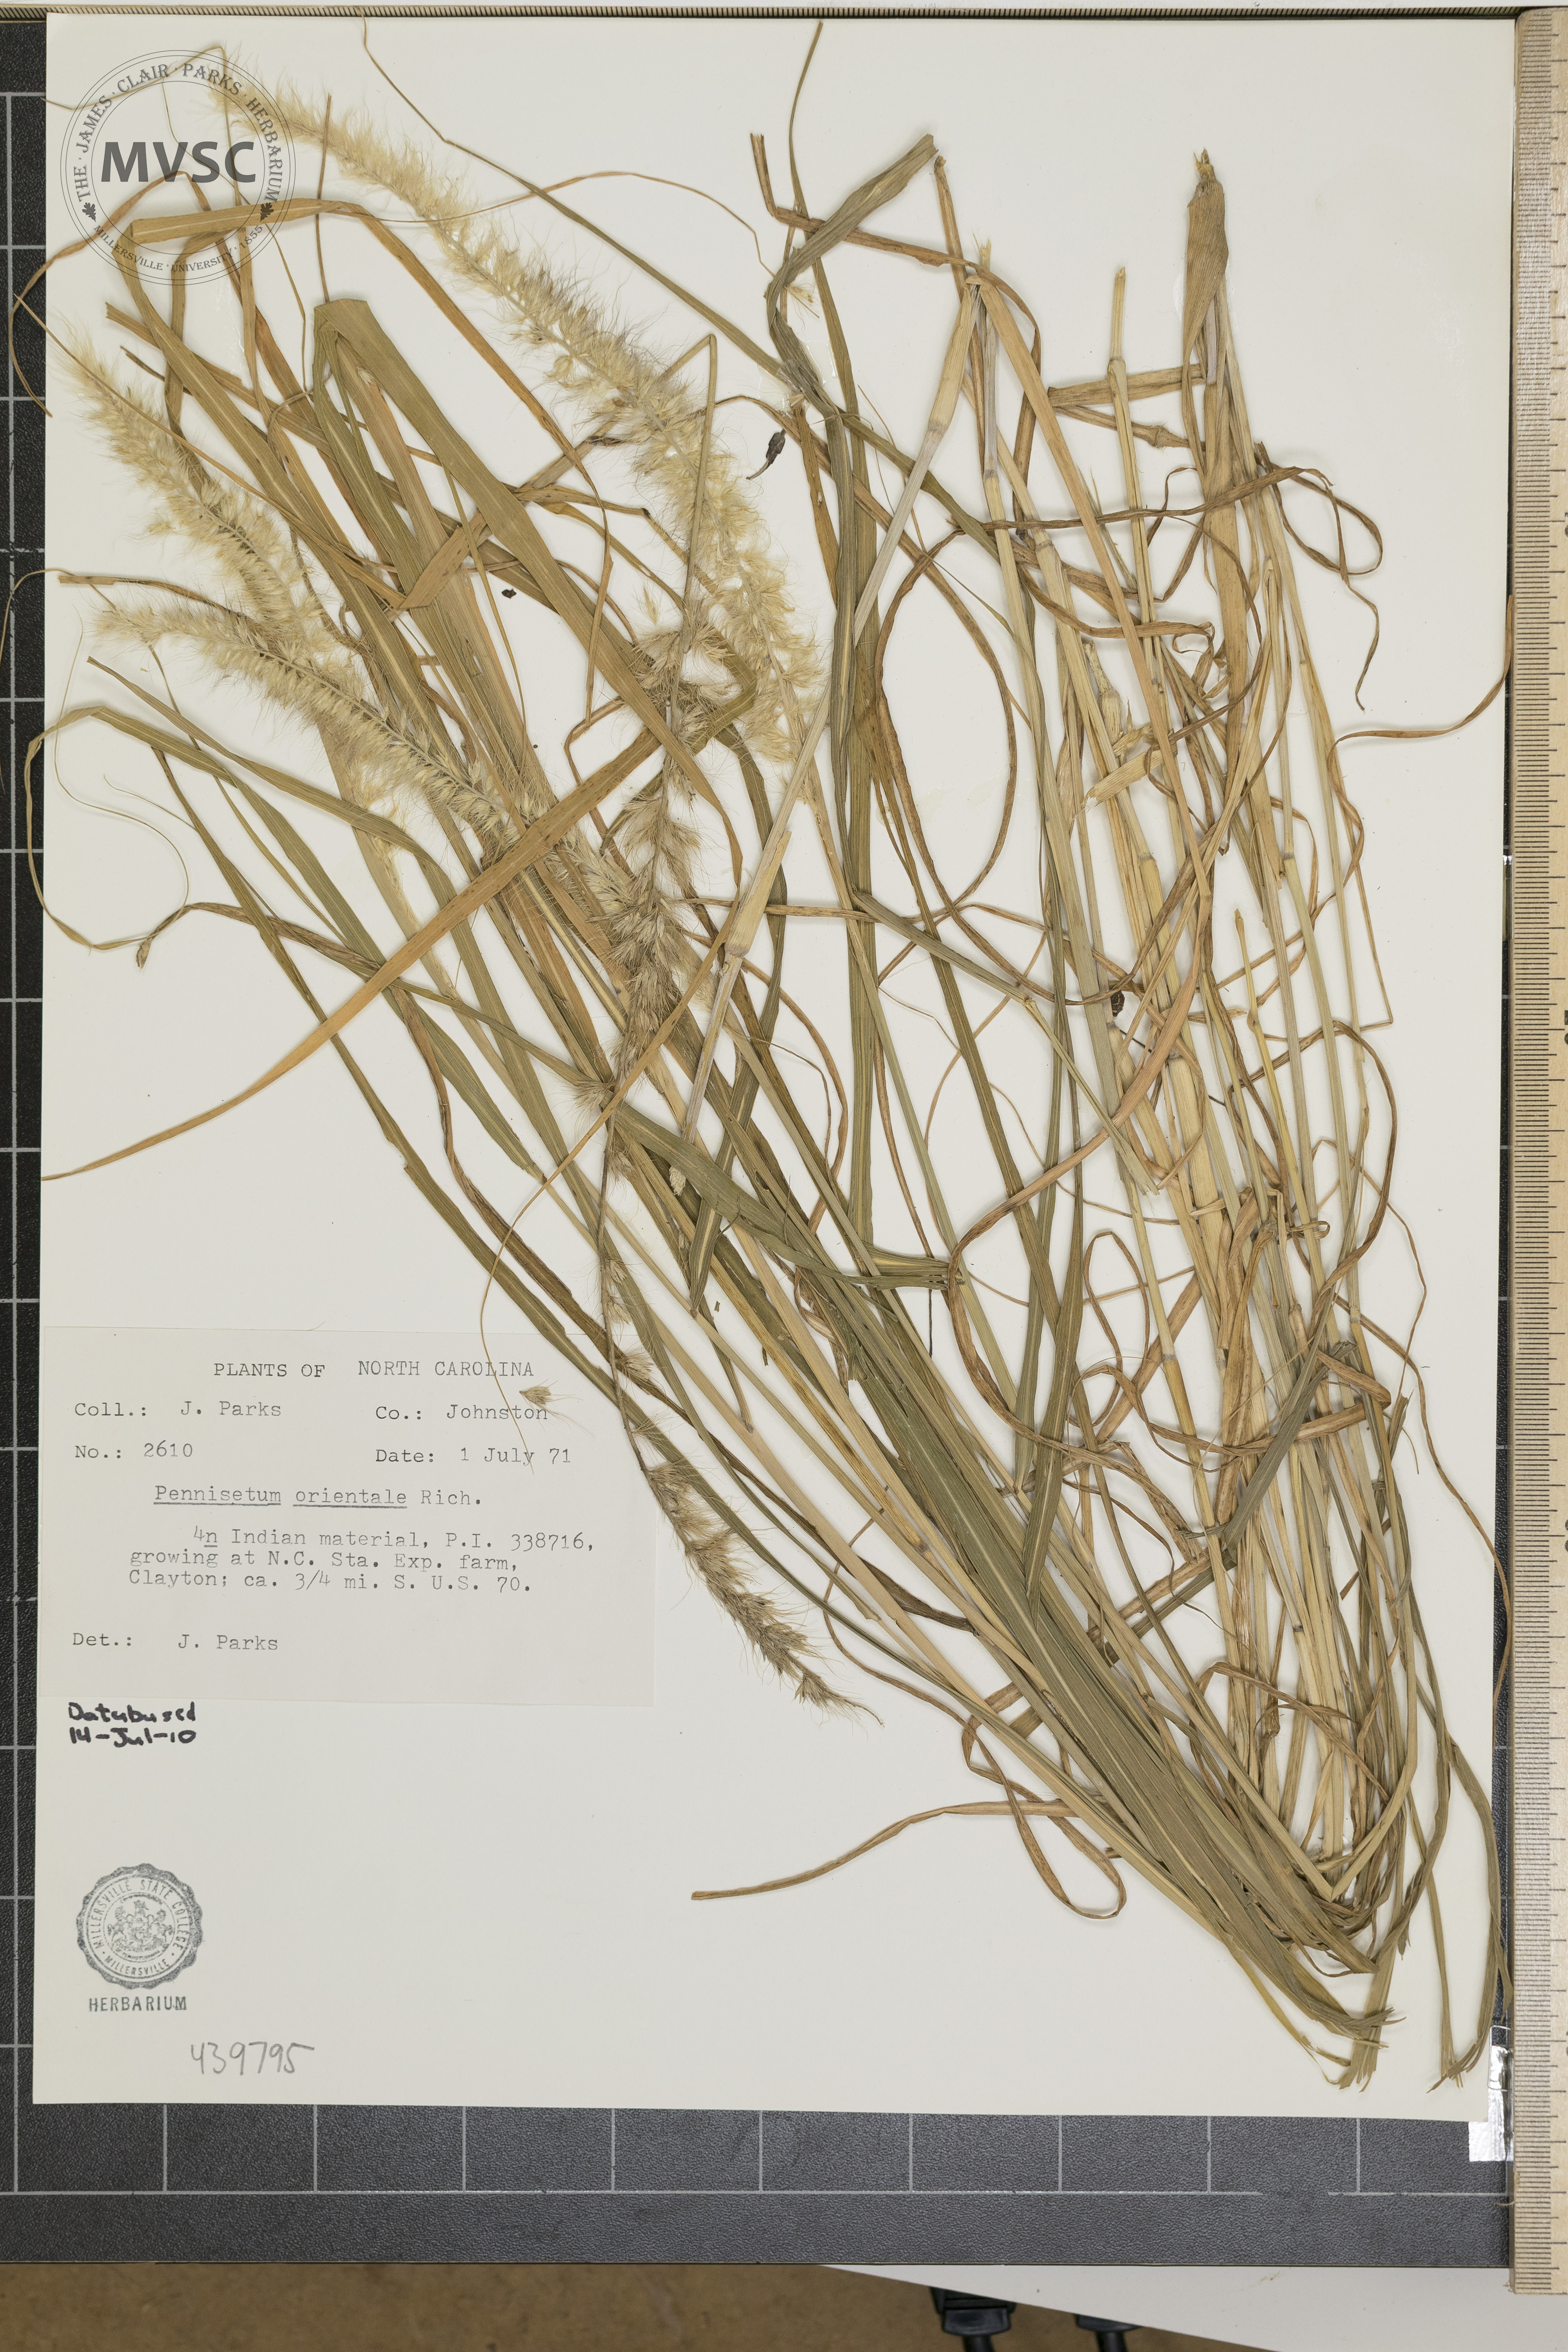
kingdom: Plantae
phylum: Tracheophyta
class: Liliopsida
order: Poales
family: Poaceae
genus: Cenchrus
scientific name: Cenchrus orientalis
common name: Oriental fountain grass
